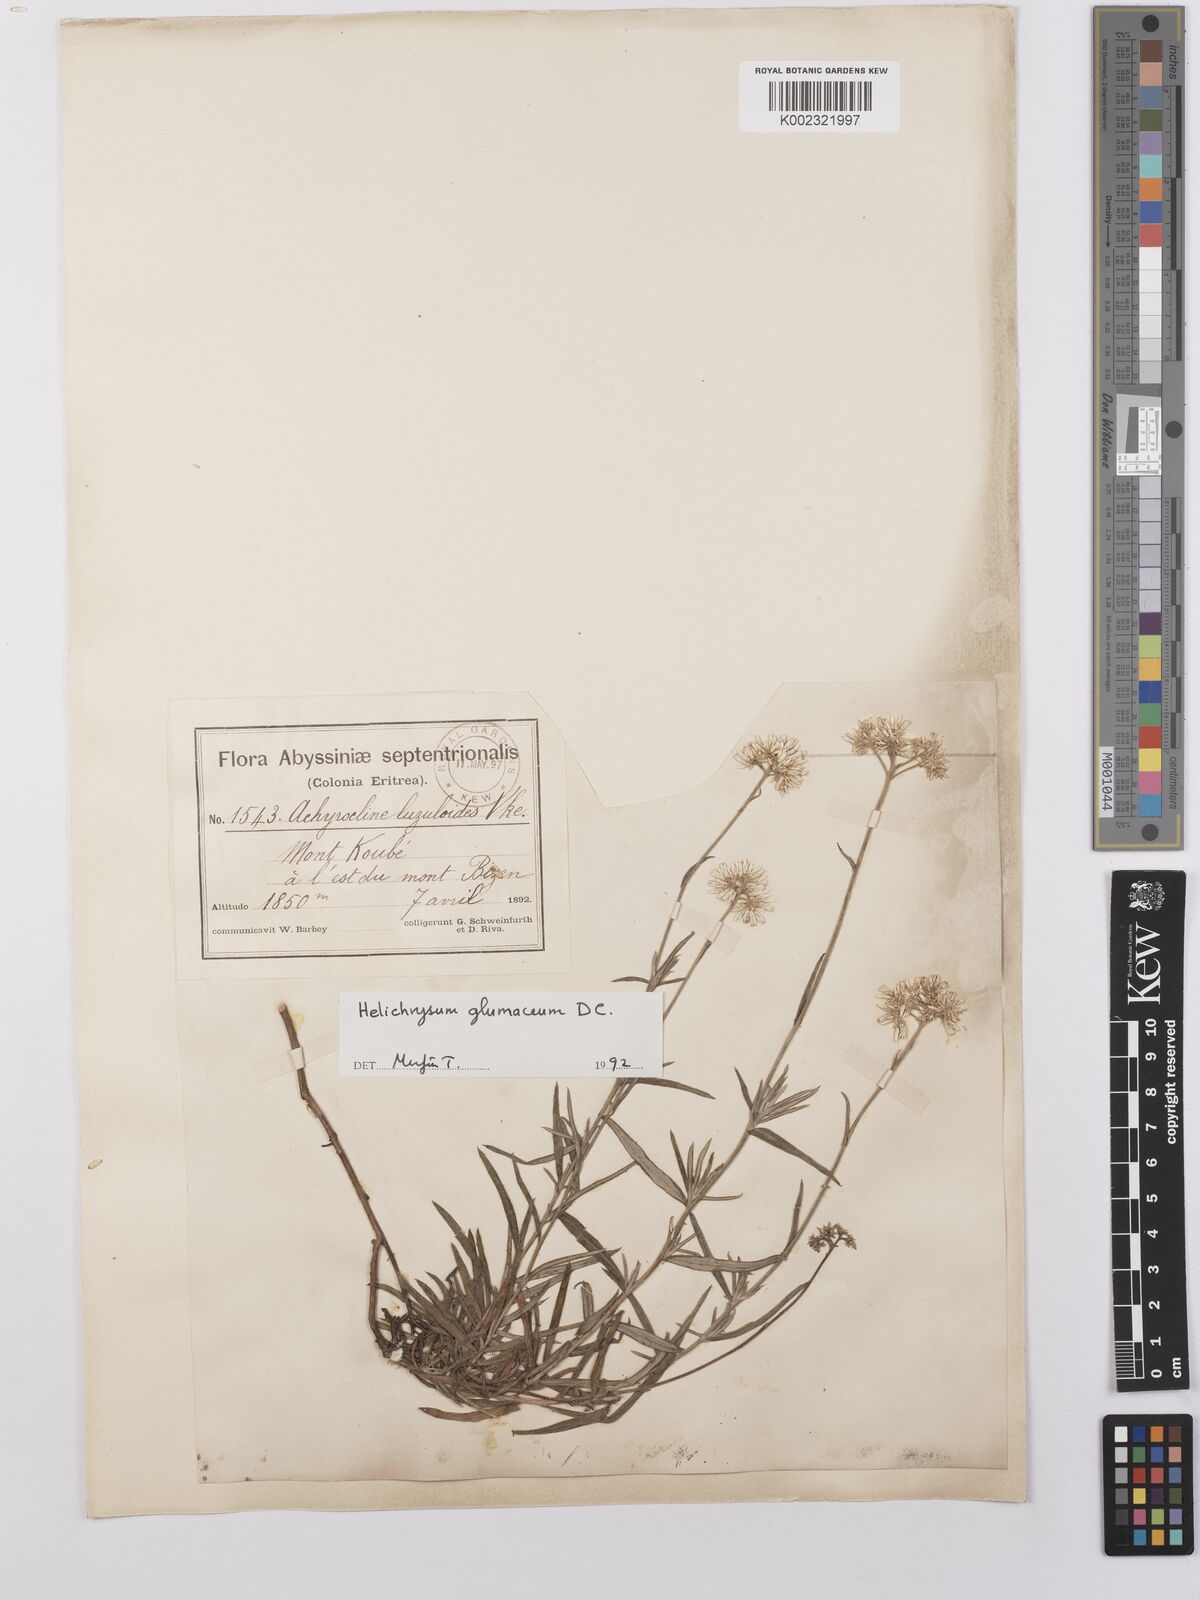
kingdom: Plantae
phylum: Tracheophyta
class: Magnoliopsida
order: Asterales
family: Asteraceae
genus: Helichrysum
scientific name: Helichrysum glumaceum
